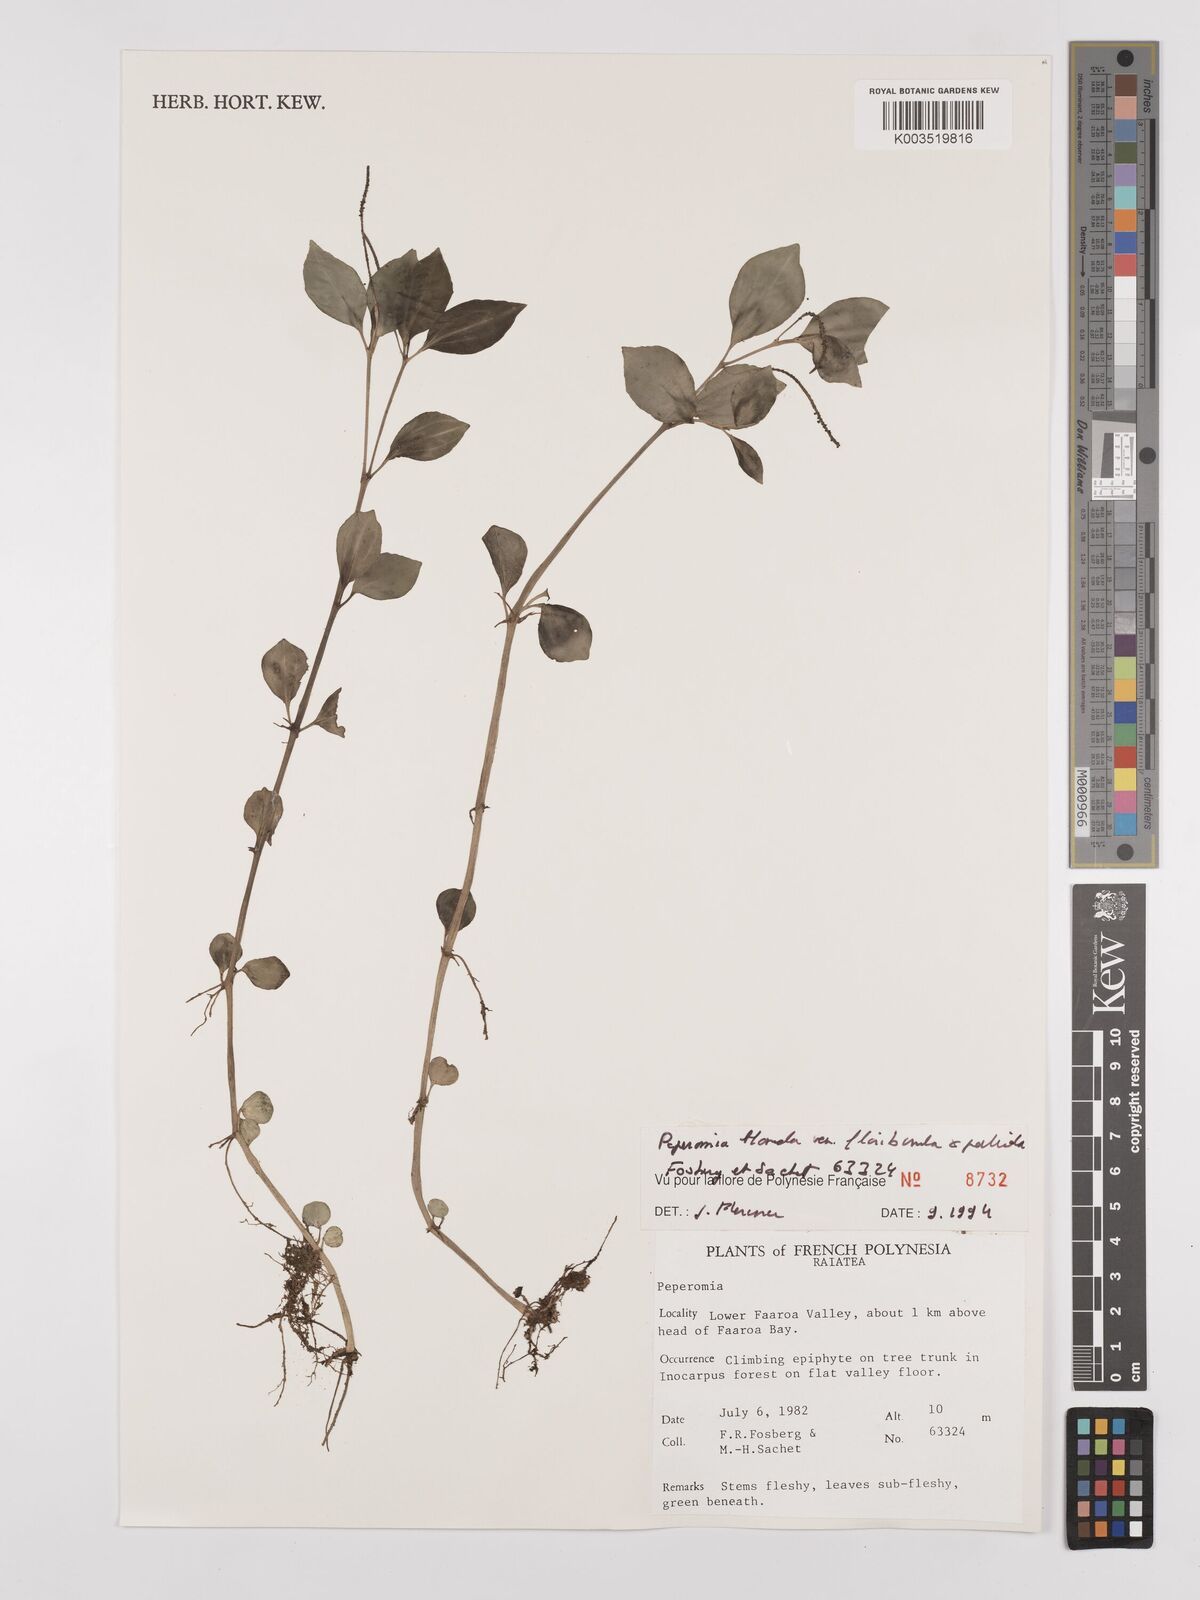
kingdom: Plantae
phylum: Tracheophyta
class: Magnoliopsida
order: Piperales
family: Piperaceae
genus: Peperomia
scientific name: Peperomia leptostachya
